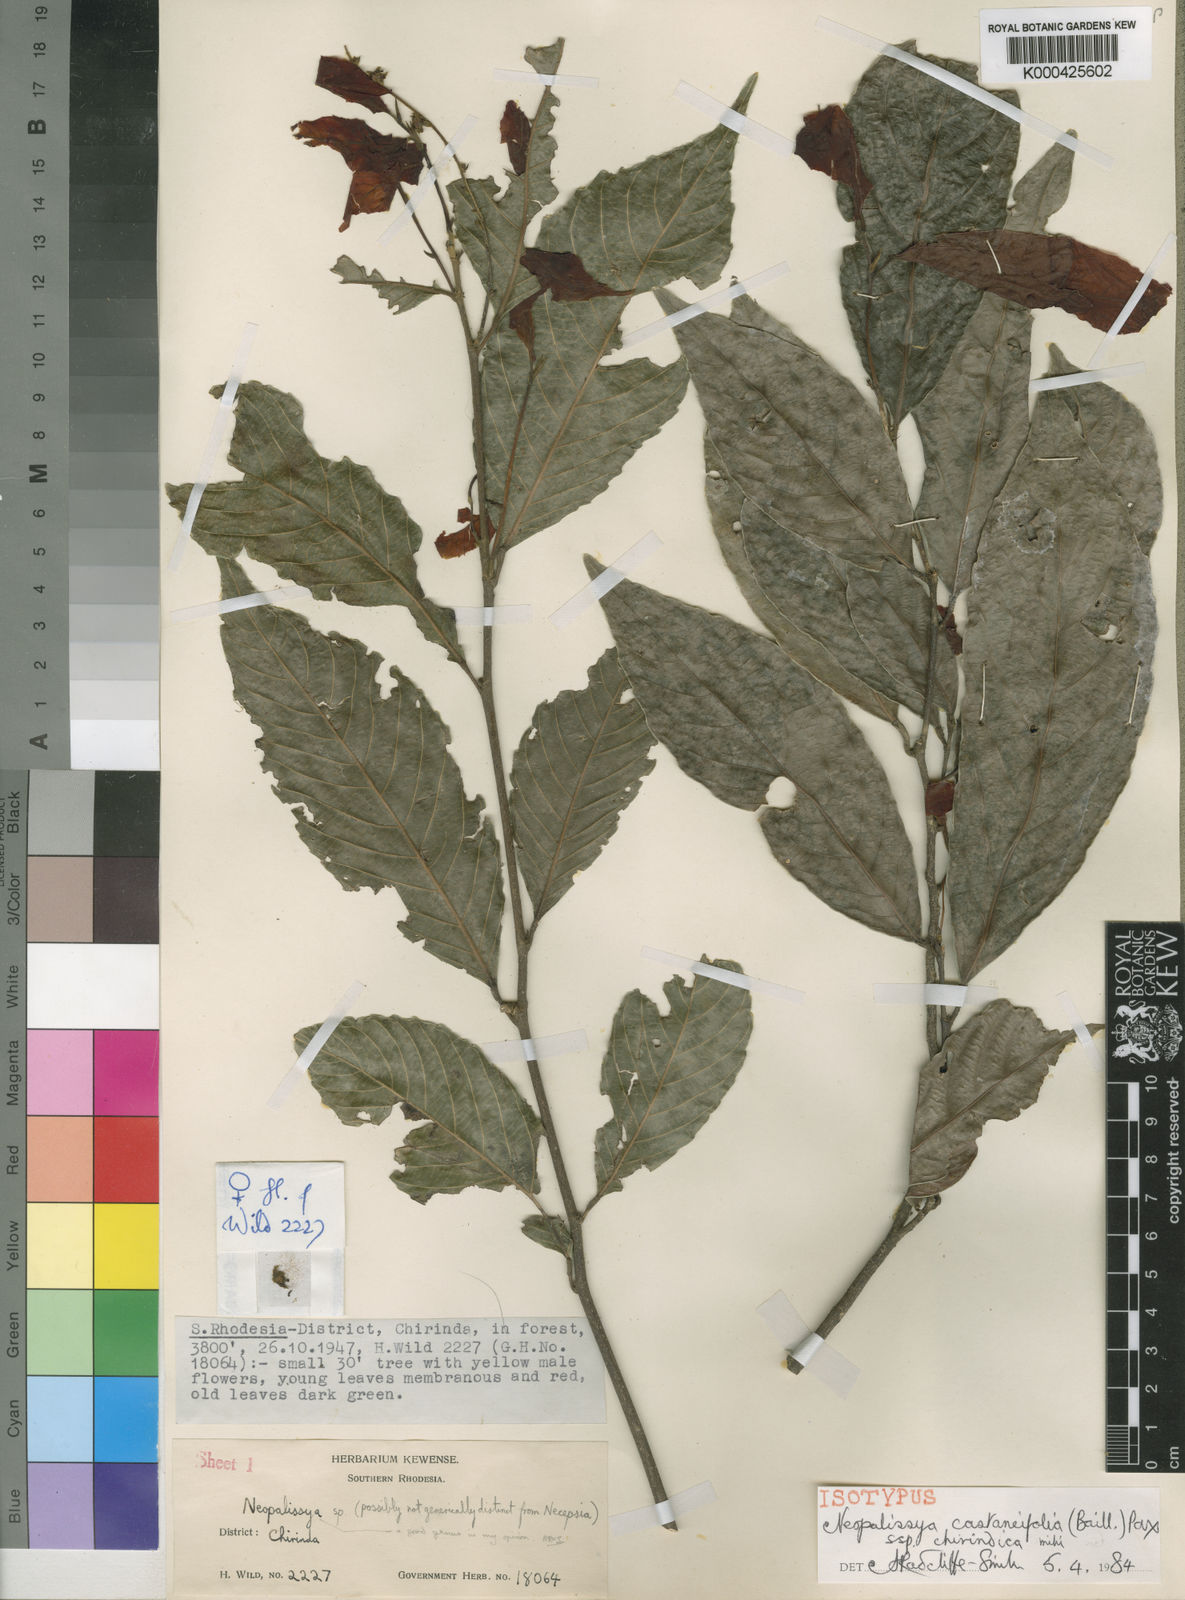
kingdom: Plantae
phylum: Tracheophyta
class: Magnoliopsida
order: Malpighiales
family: Euphorbiaceae
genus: Necepsia
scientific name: Necepsia
